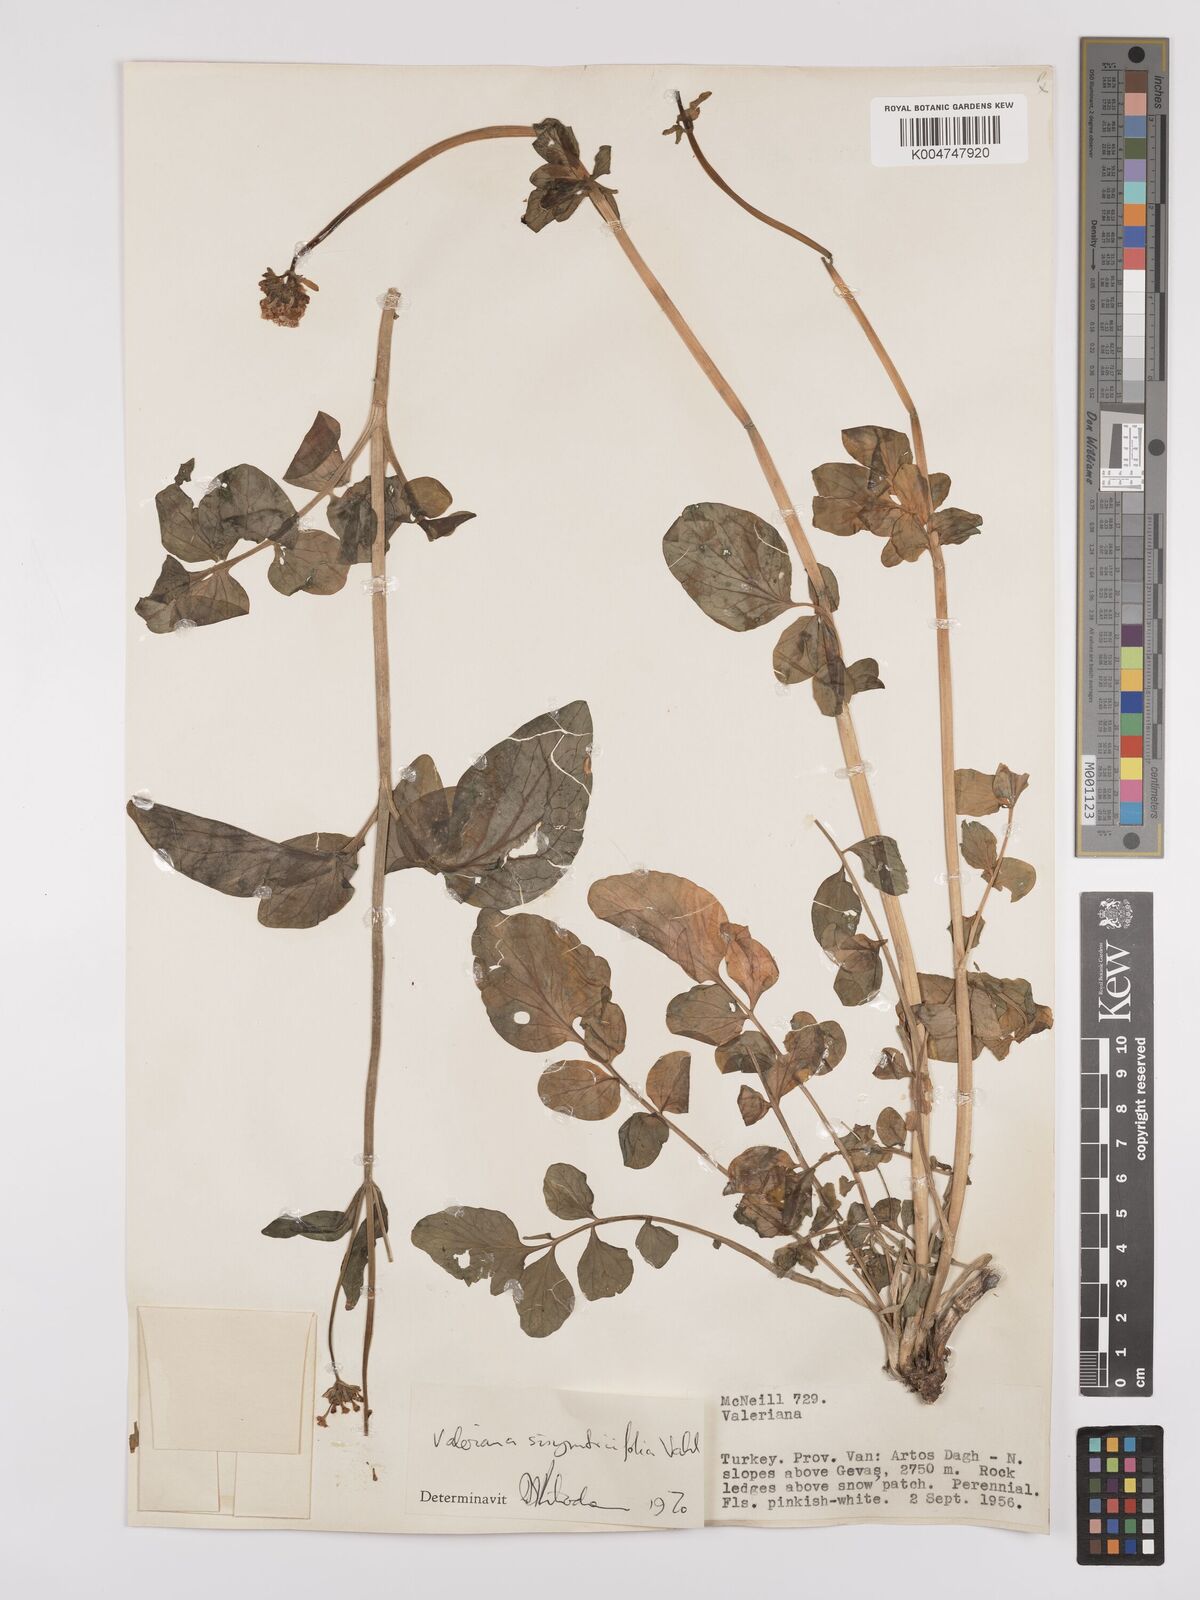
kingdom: Plantae
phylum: Tracheophyta
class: Magnoliopsida
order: Dipsacales
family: Caprifoliaceae
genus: Valeriana
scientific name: Valeriana
